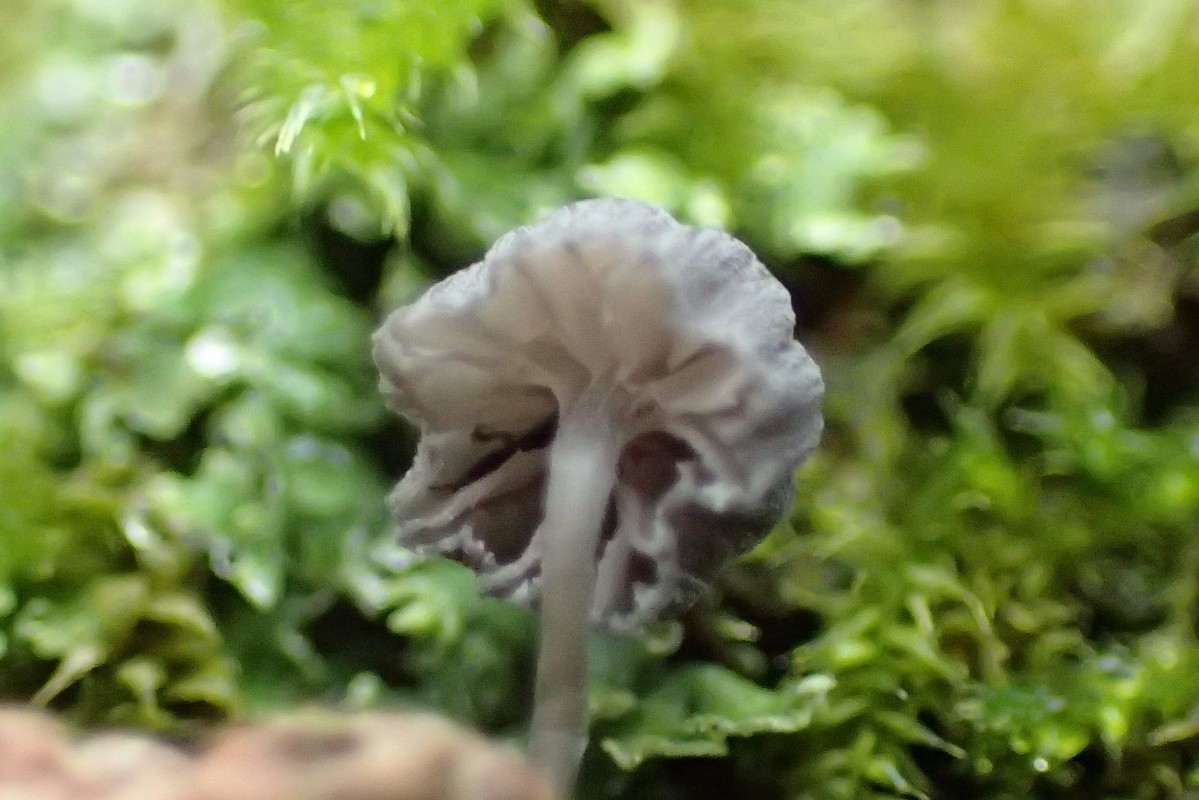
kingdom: Fungi
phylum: Basidiomycota
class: Agaricomycetes
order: Agaricales
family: Mycenaceae
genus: Mycena
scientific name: Mycena pseudocorticola
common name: gråblå bark-huesvamp
